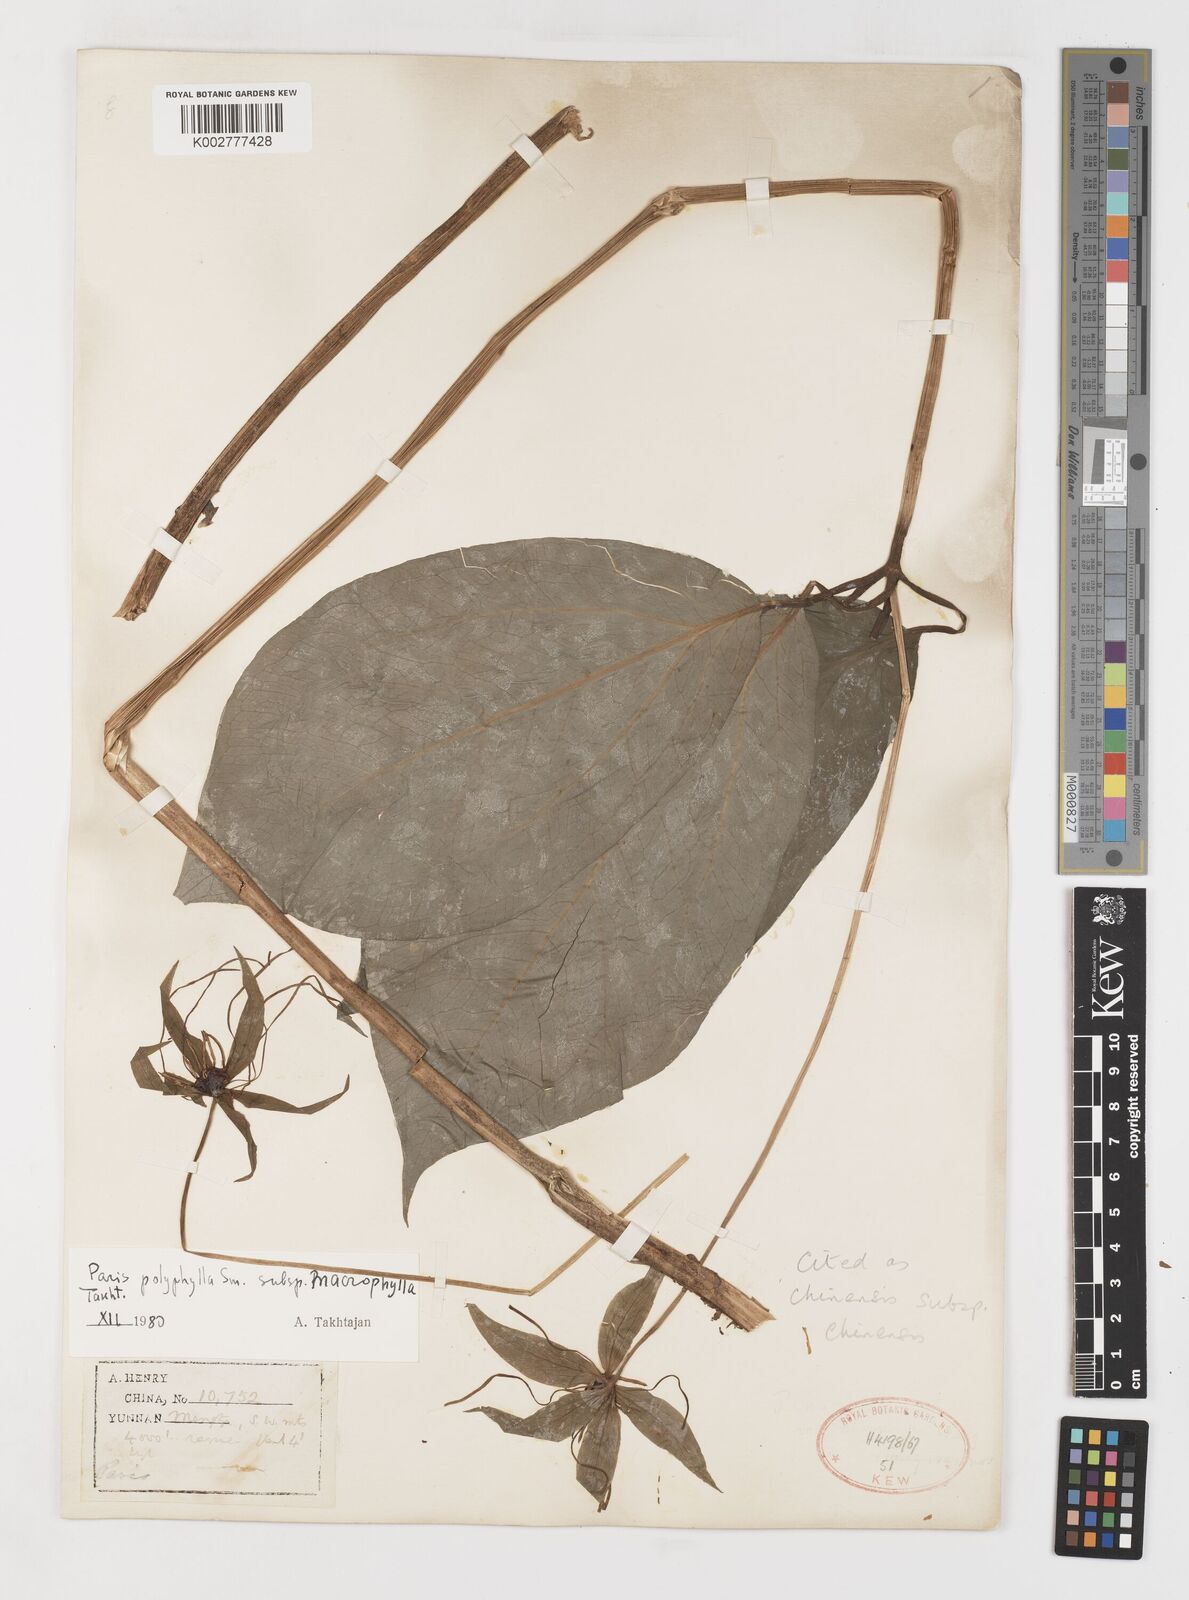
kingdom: Plantae
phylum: Tracheophyta
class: Liliopsida
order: Liliales
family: Melanthiaceae
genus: Paris
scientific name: Paris chinensis
